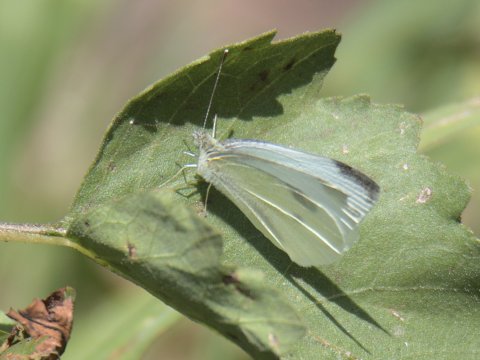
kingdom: Animalia
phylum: Arthropoda
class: Insecta
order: Lepidoptera
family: Pieridae
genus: Pieris
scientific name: Pieris rapae
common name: Cabbage White
